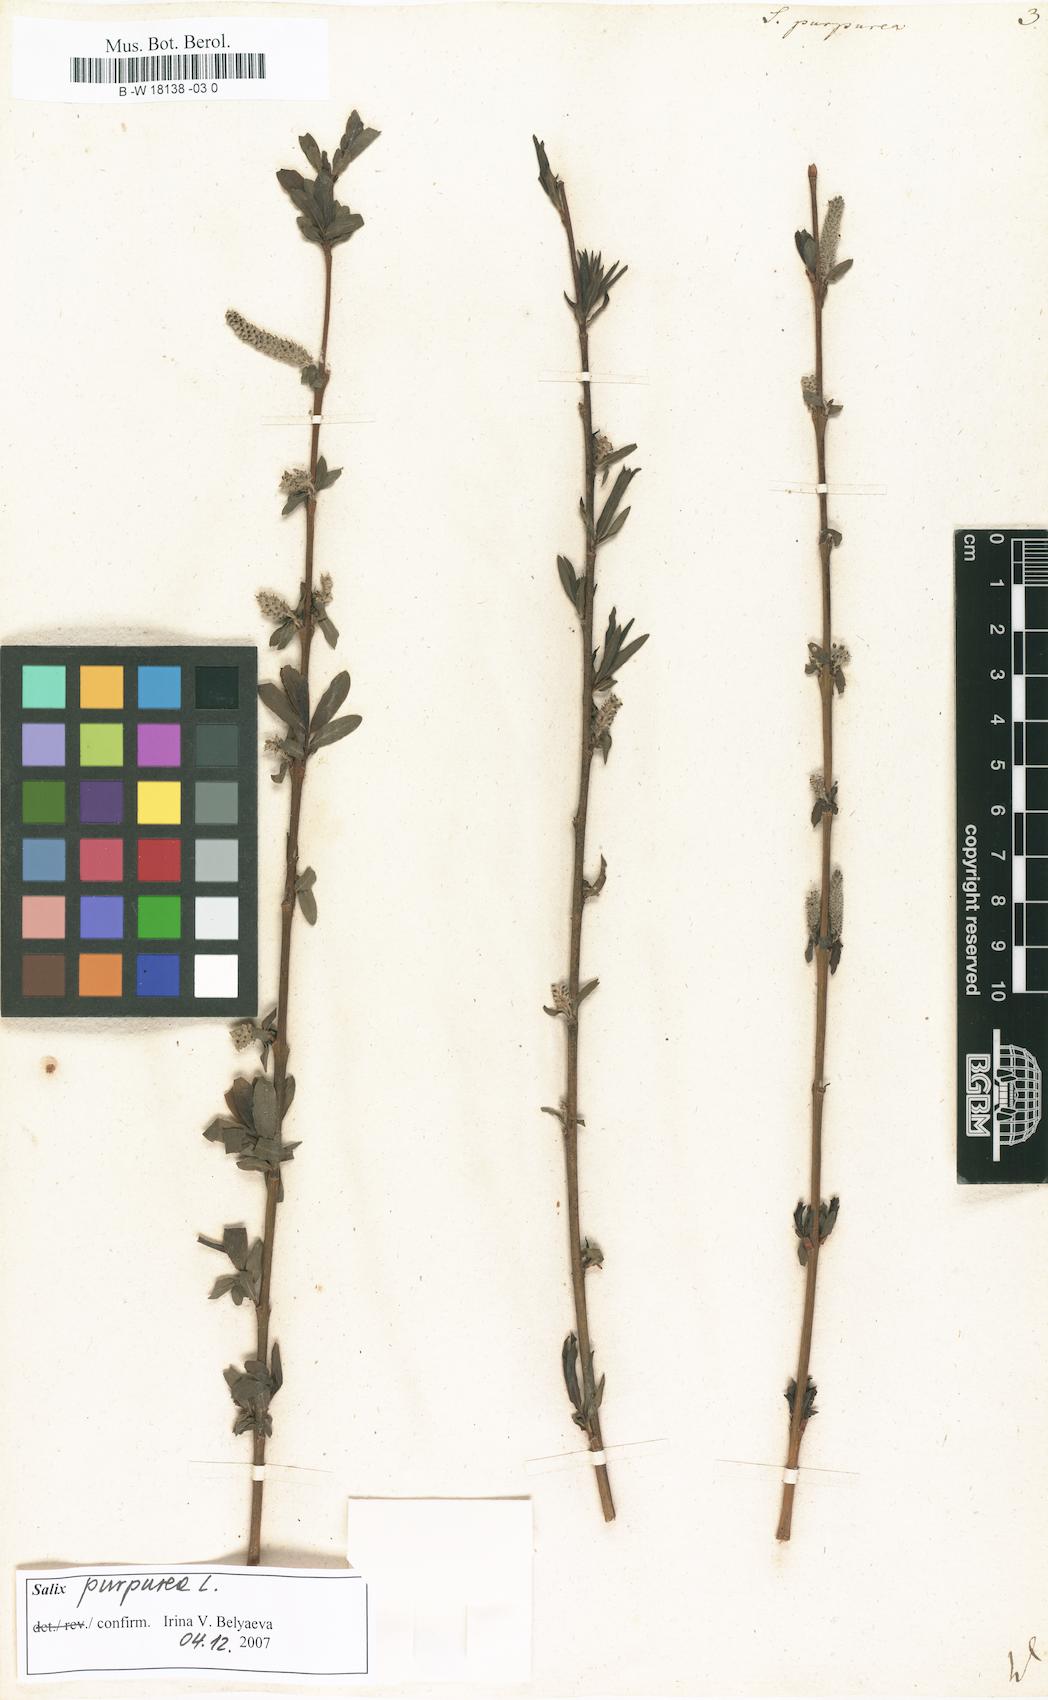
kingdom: Plantae
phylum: Tracheophyta
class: Magnoliopsida
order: Malpighiales
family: Salicaceae
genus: Salix
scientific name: Salix purpurea
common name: Purple willow
